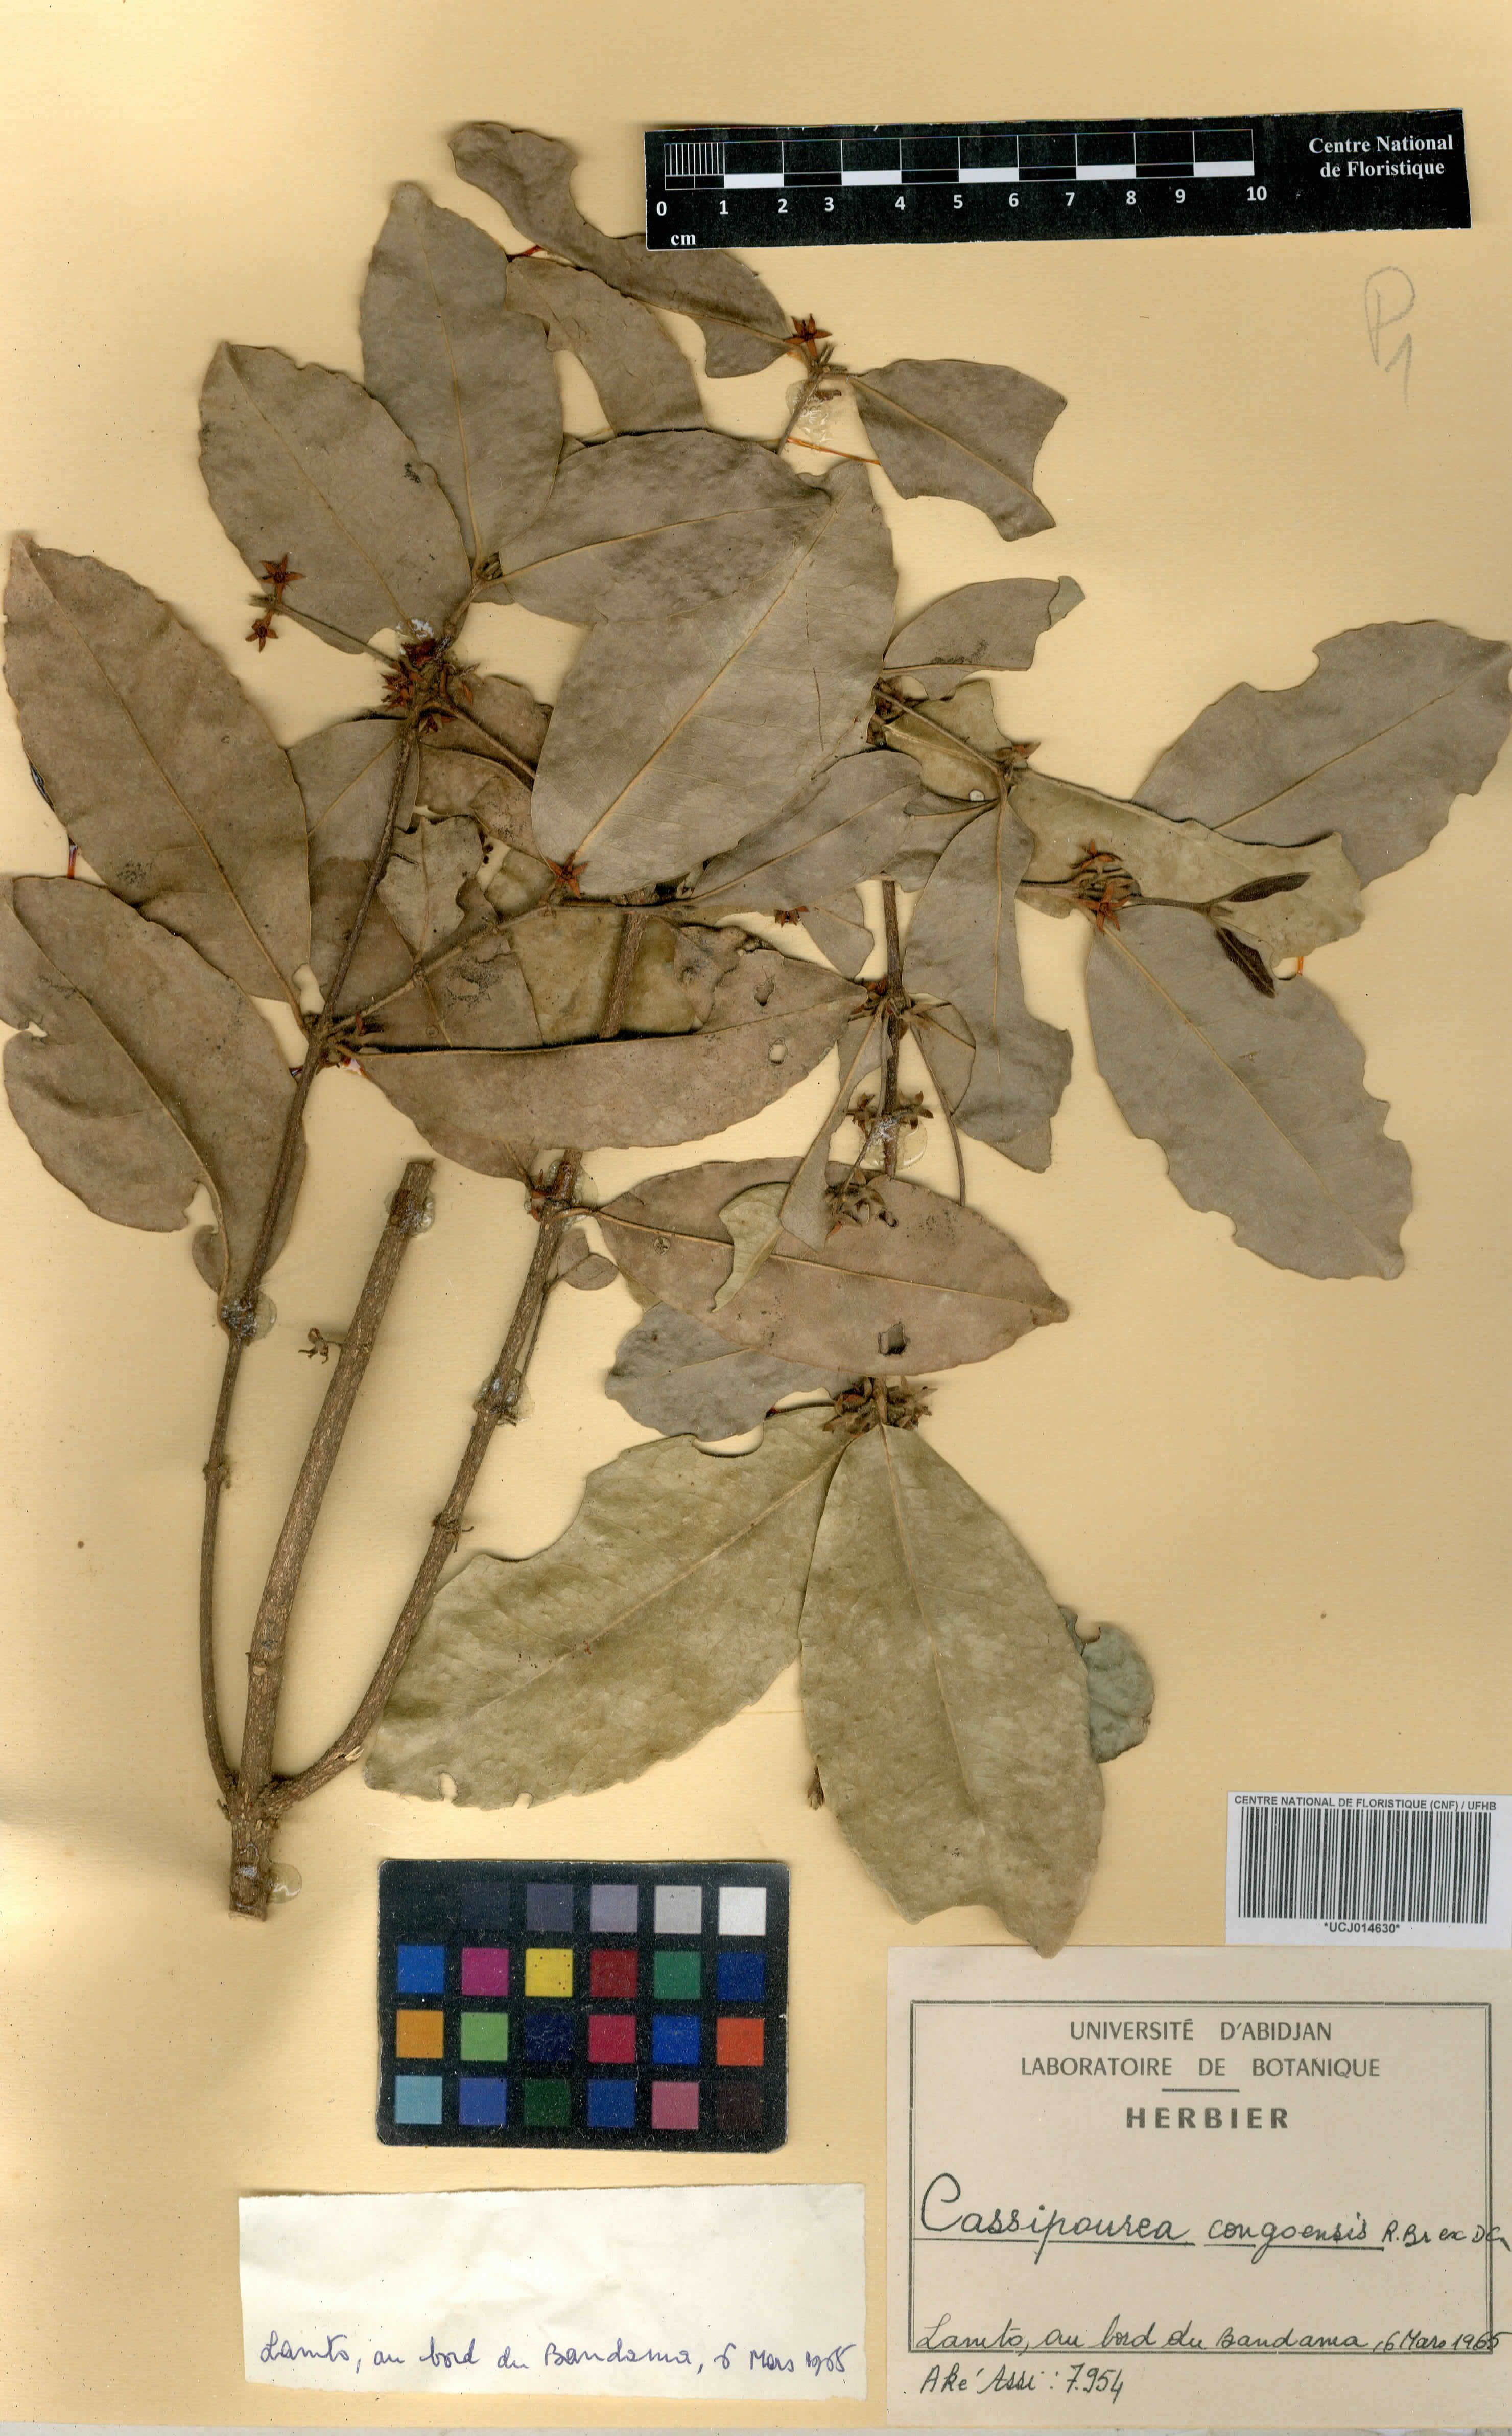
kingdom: Plantae
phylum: Tracheophyta
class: Magnoliopsida
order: Malpighiales
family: Rhizophoraceae
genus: Cassipourea
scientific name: Cassipourea congoensis
